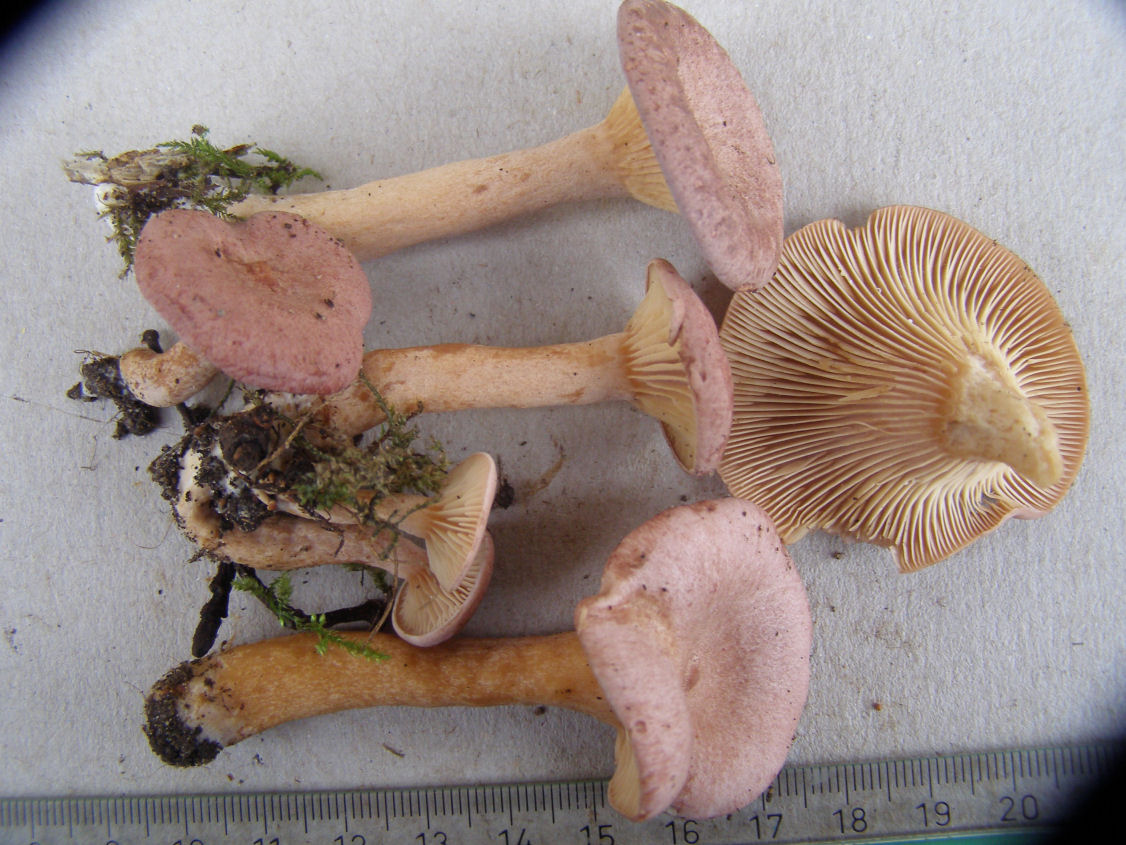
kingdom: Fungi
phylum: Basidiomycota
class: Agaricomycetes
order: Russulales
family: Russulaceae
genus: Lactarius
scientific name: Lactarius lilacinus
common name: lilla mælkehat
